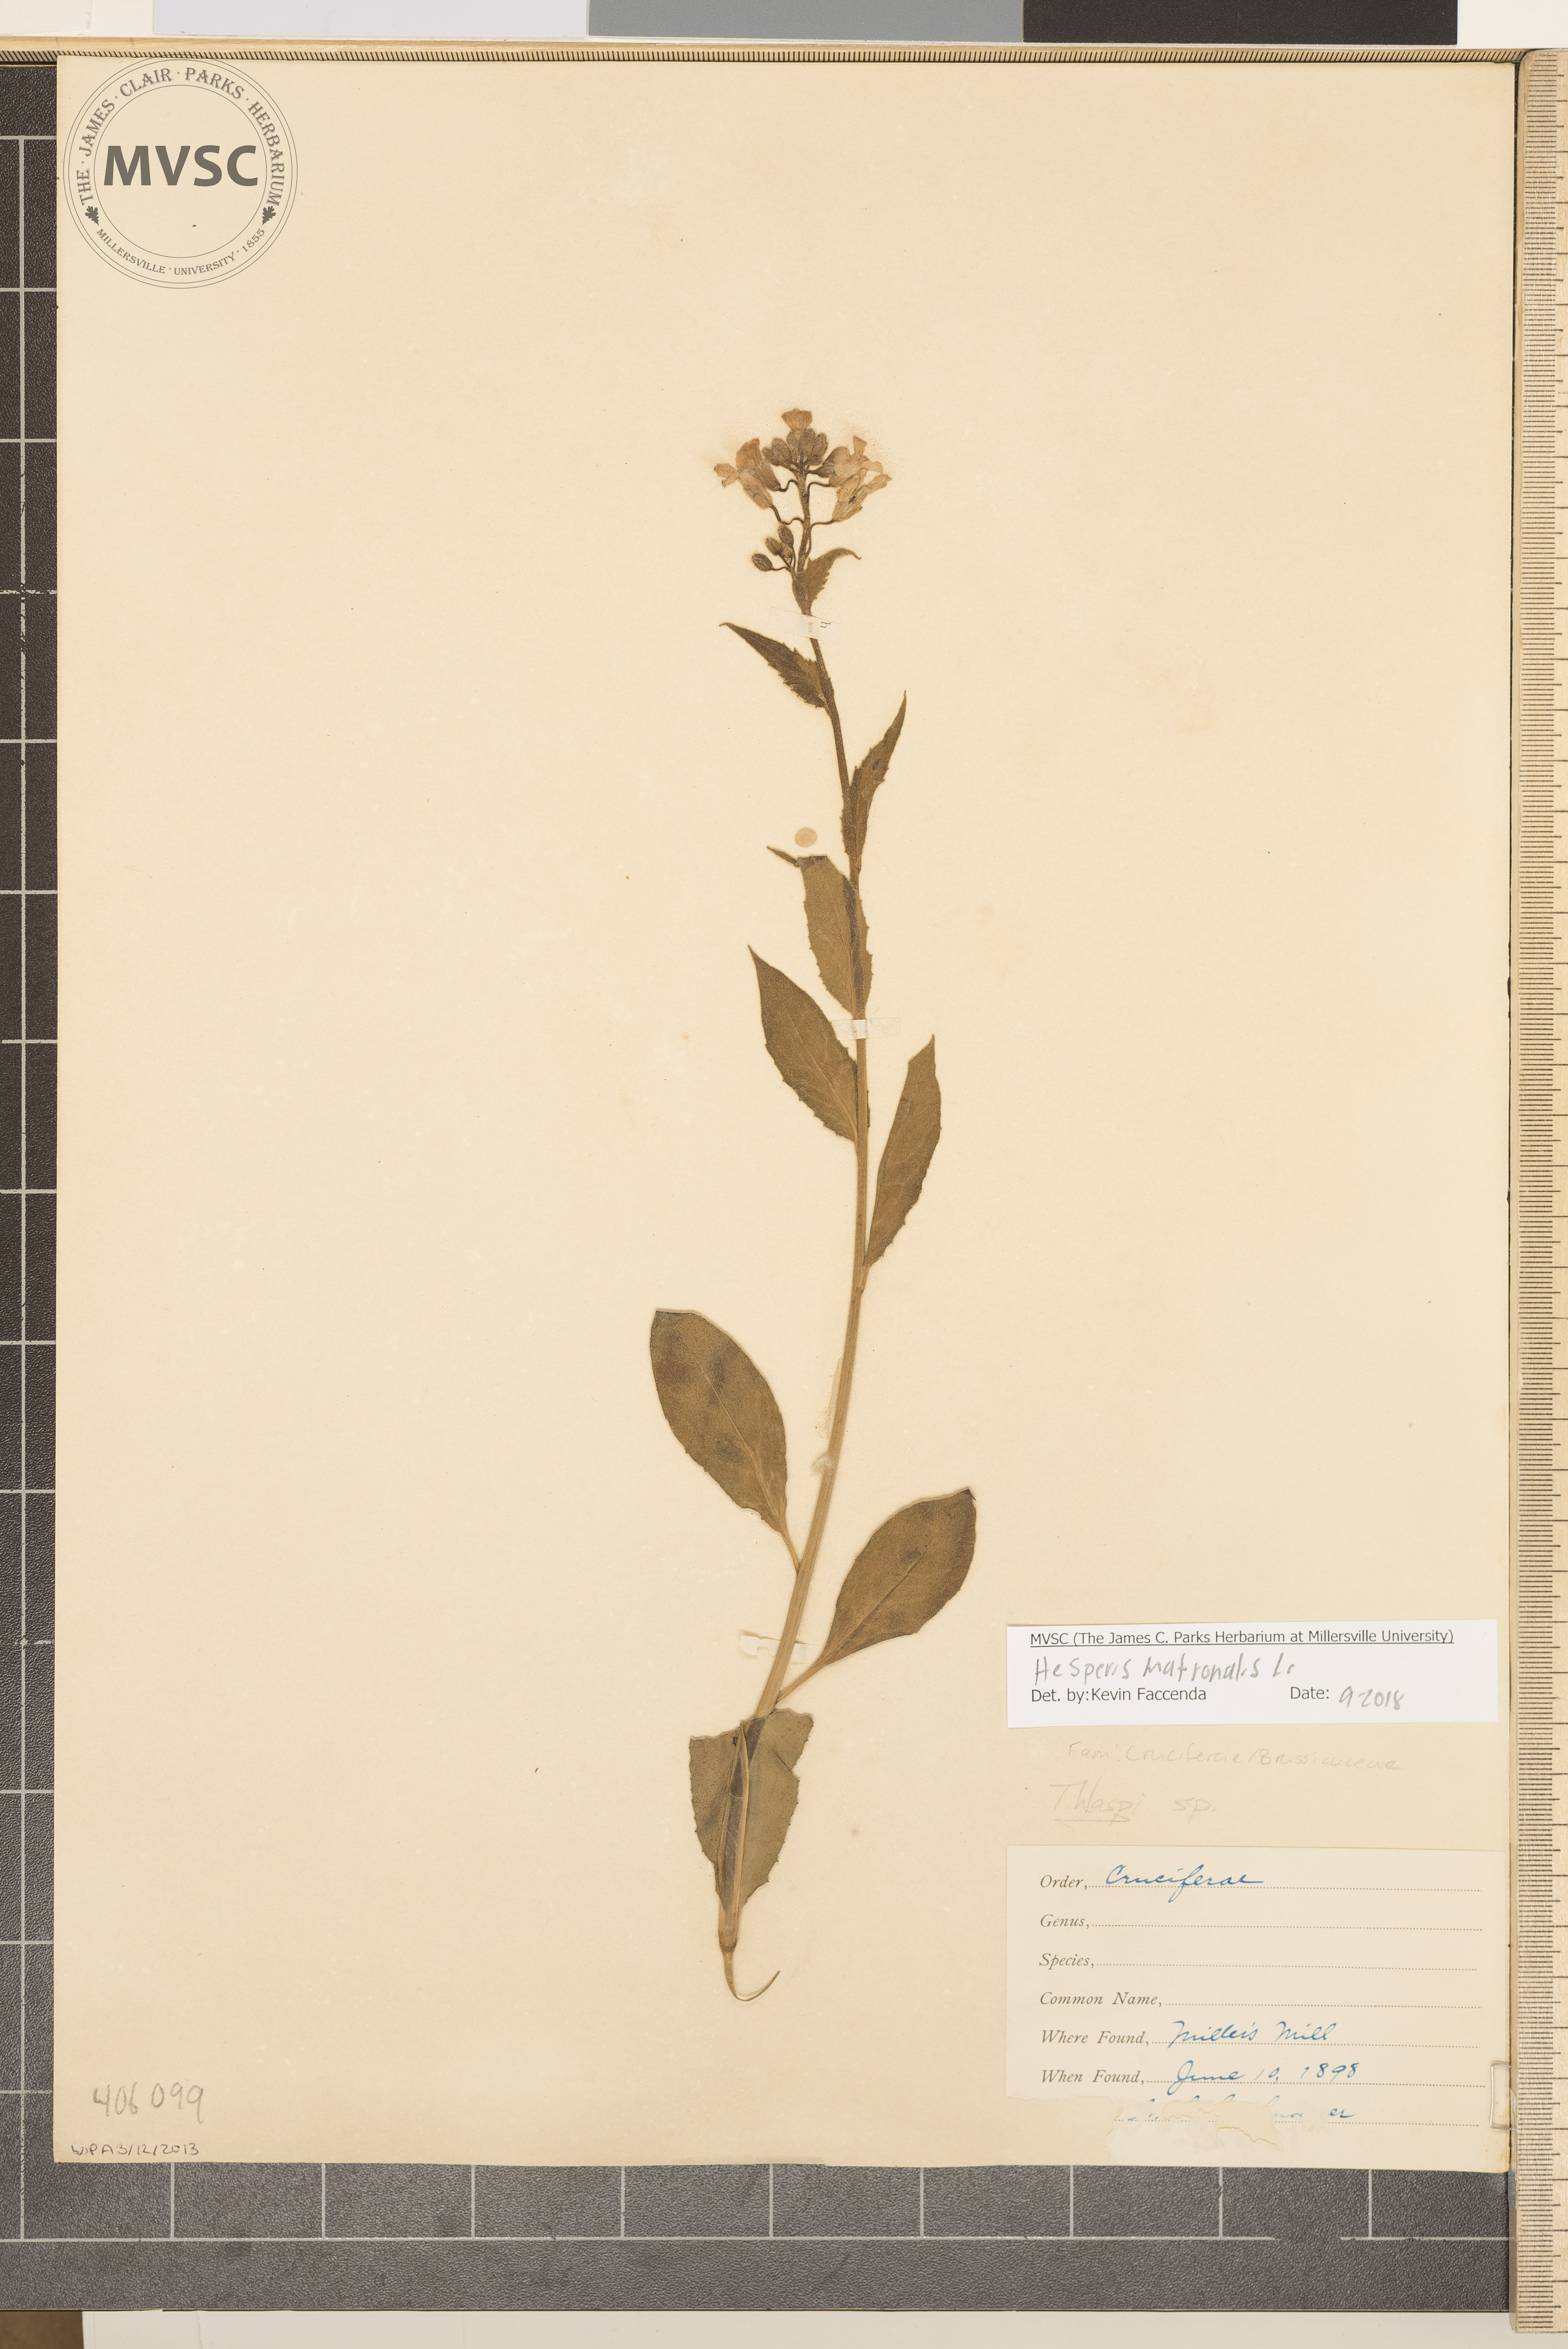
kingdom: Plantae
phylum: Tracheophyta
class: Magnoliopsida
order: Brassicales
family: Brassicaceae
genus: Hesperis
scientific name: Hesperis matronalis
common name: pennycress
